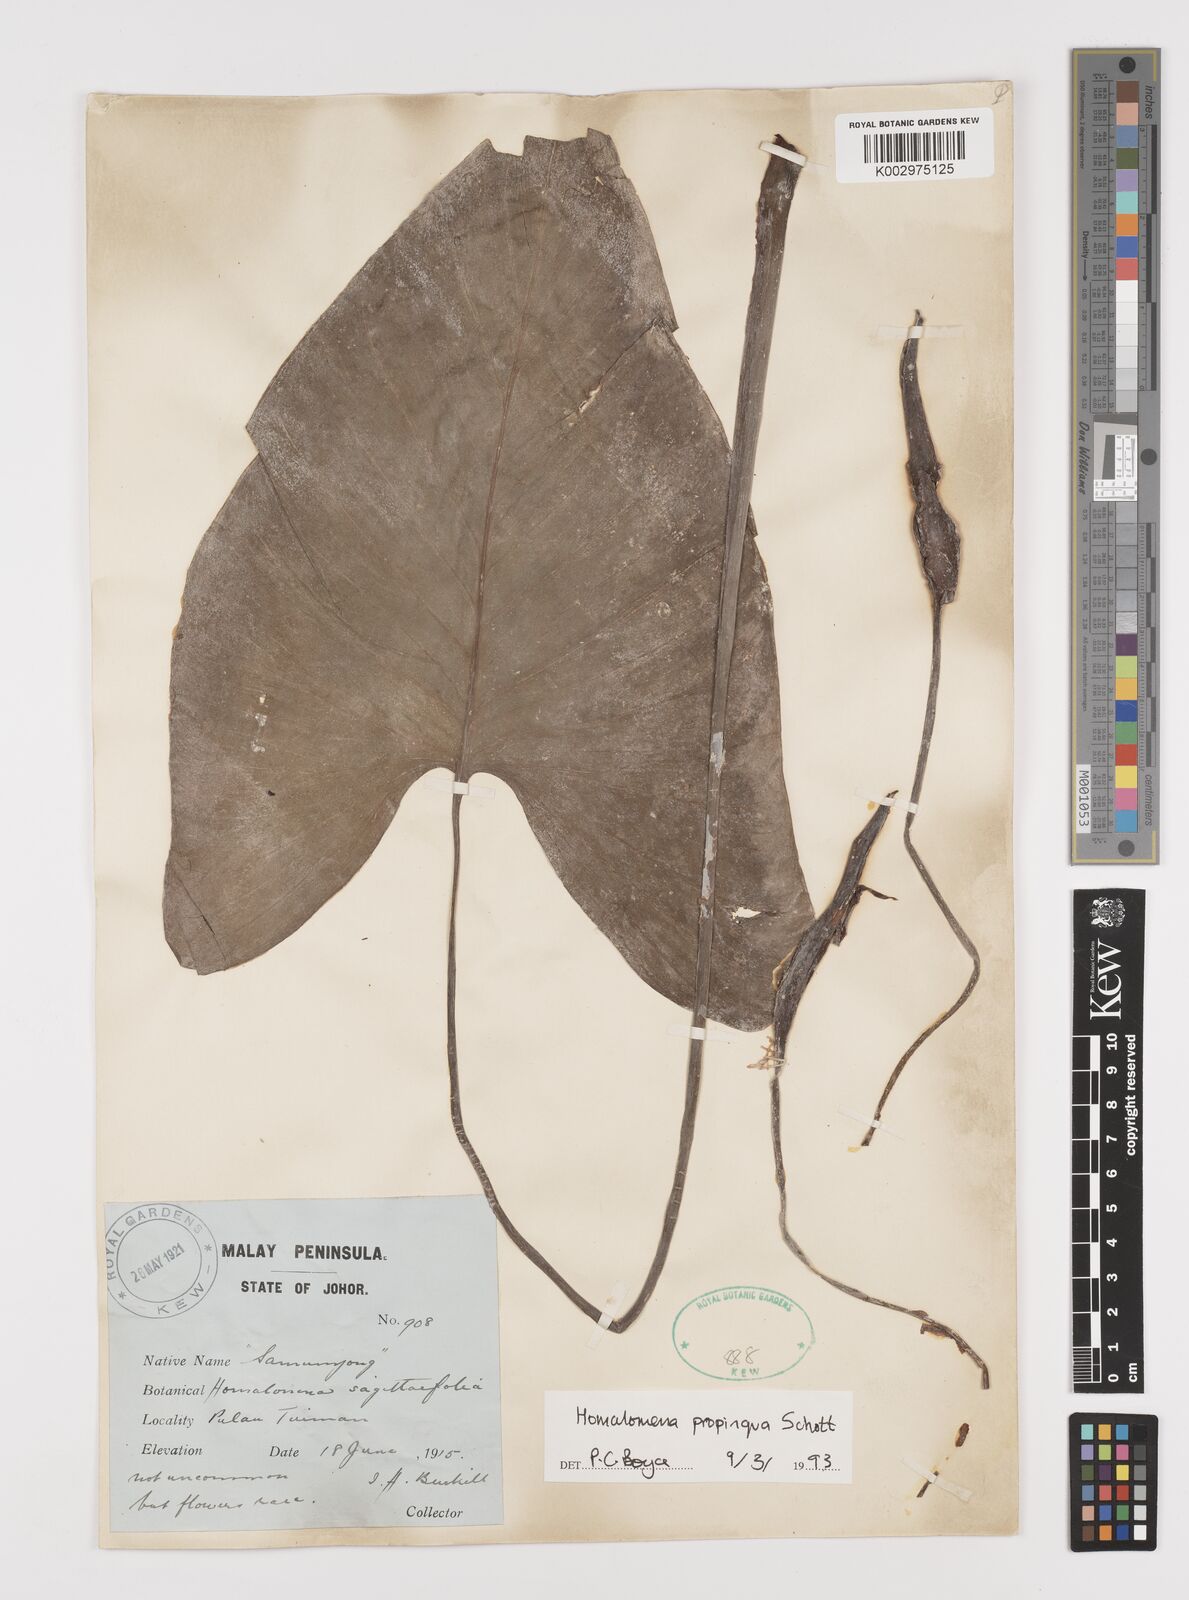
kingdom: Plantae
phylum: Tracheophyta
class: Liliopsida
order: Alismatales
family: Araceae
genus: Homalomena
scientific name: Homalomena humilis
